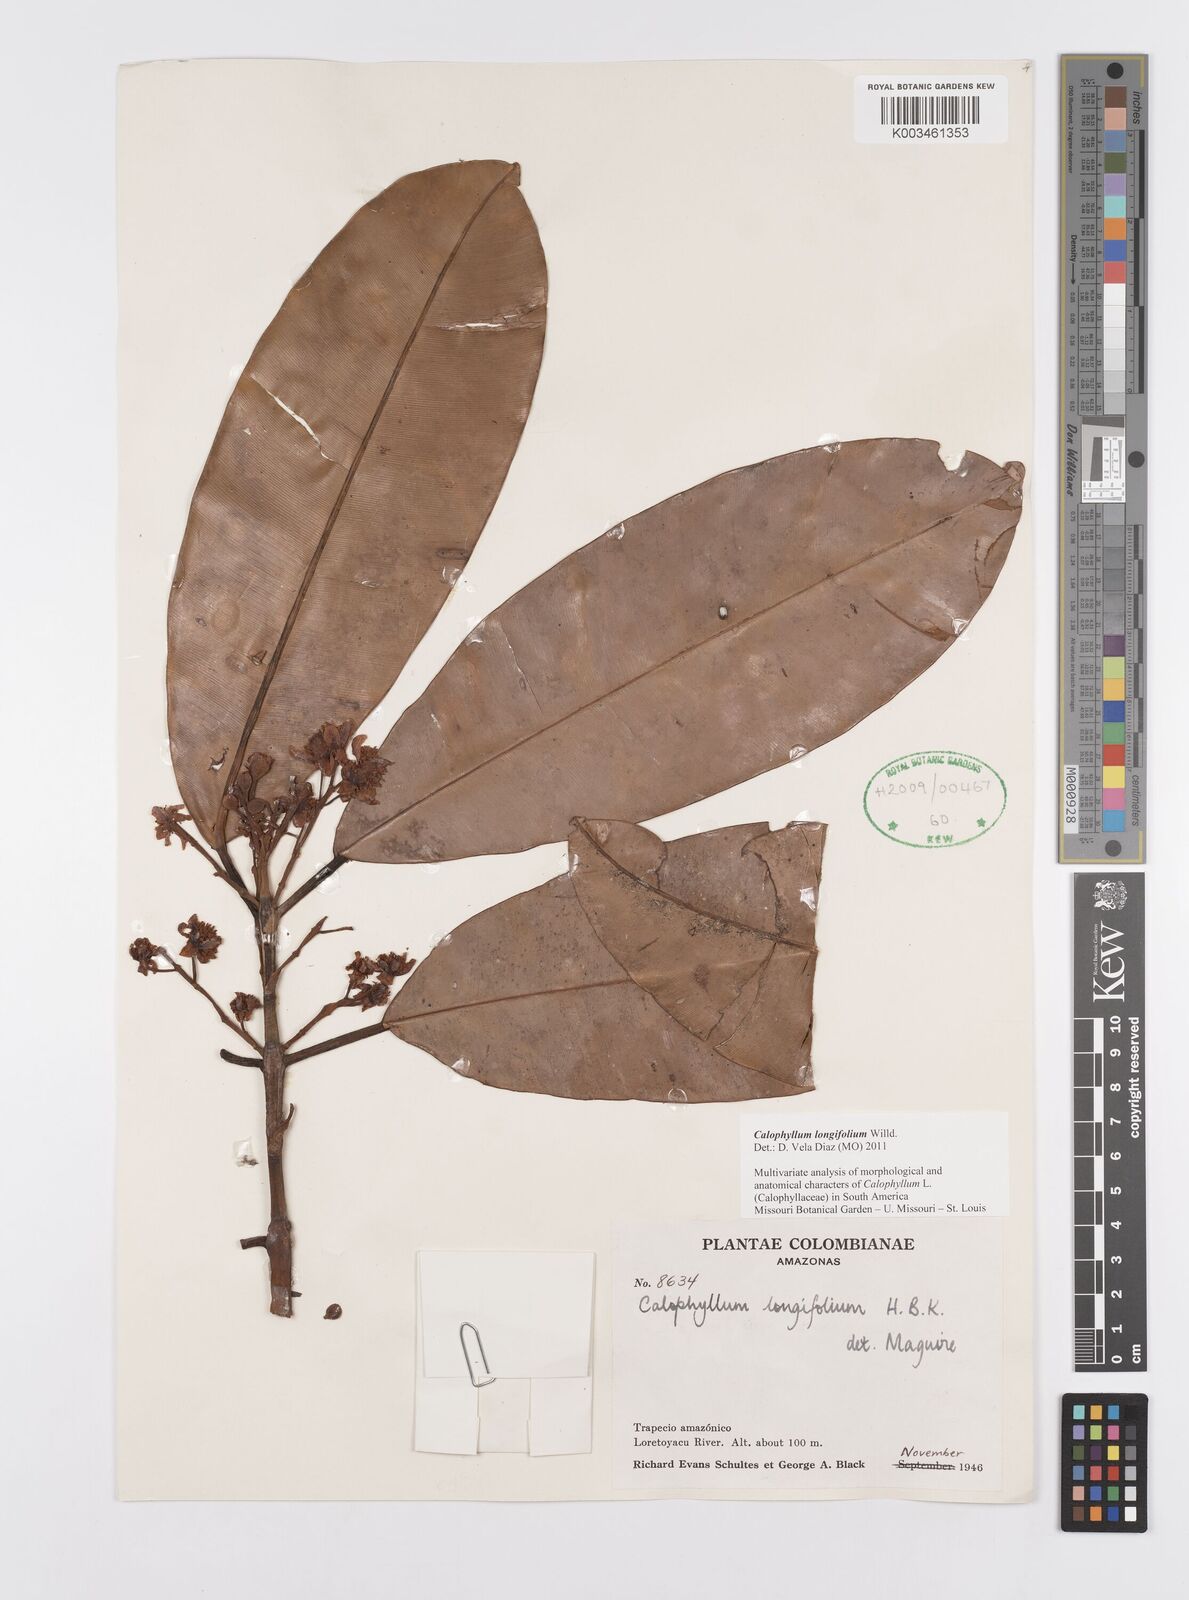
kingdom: Plantae
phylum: Tracheophyta
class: Magnoliopsida
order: Malpighiales
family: Calophyllaceae
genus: Calophyllum
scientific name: Calophyllum longifolium
